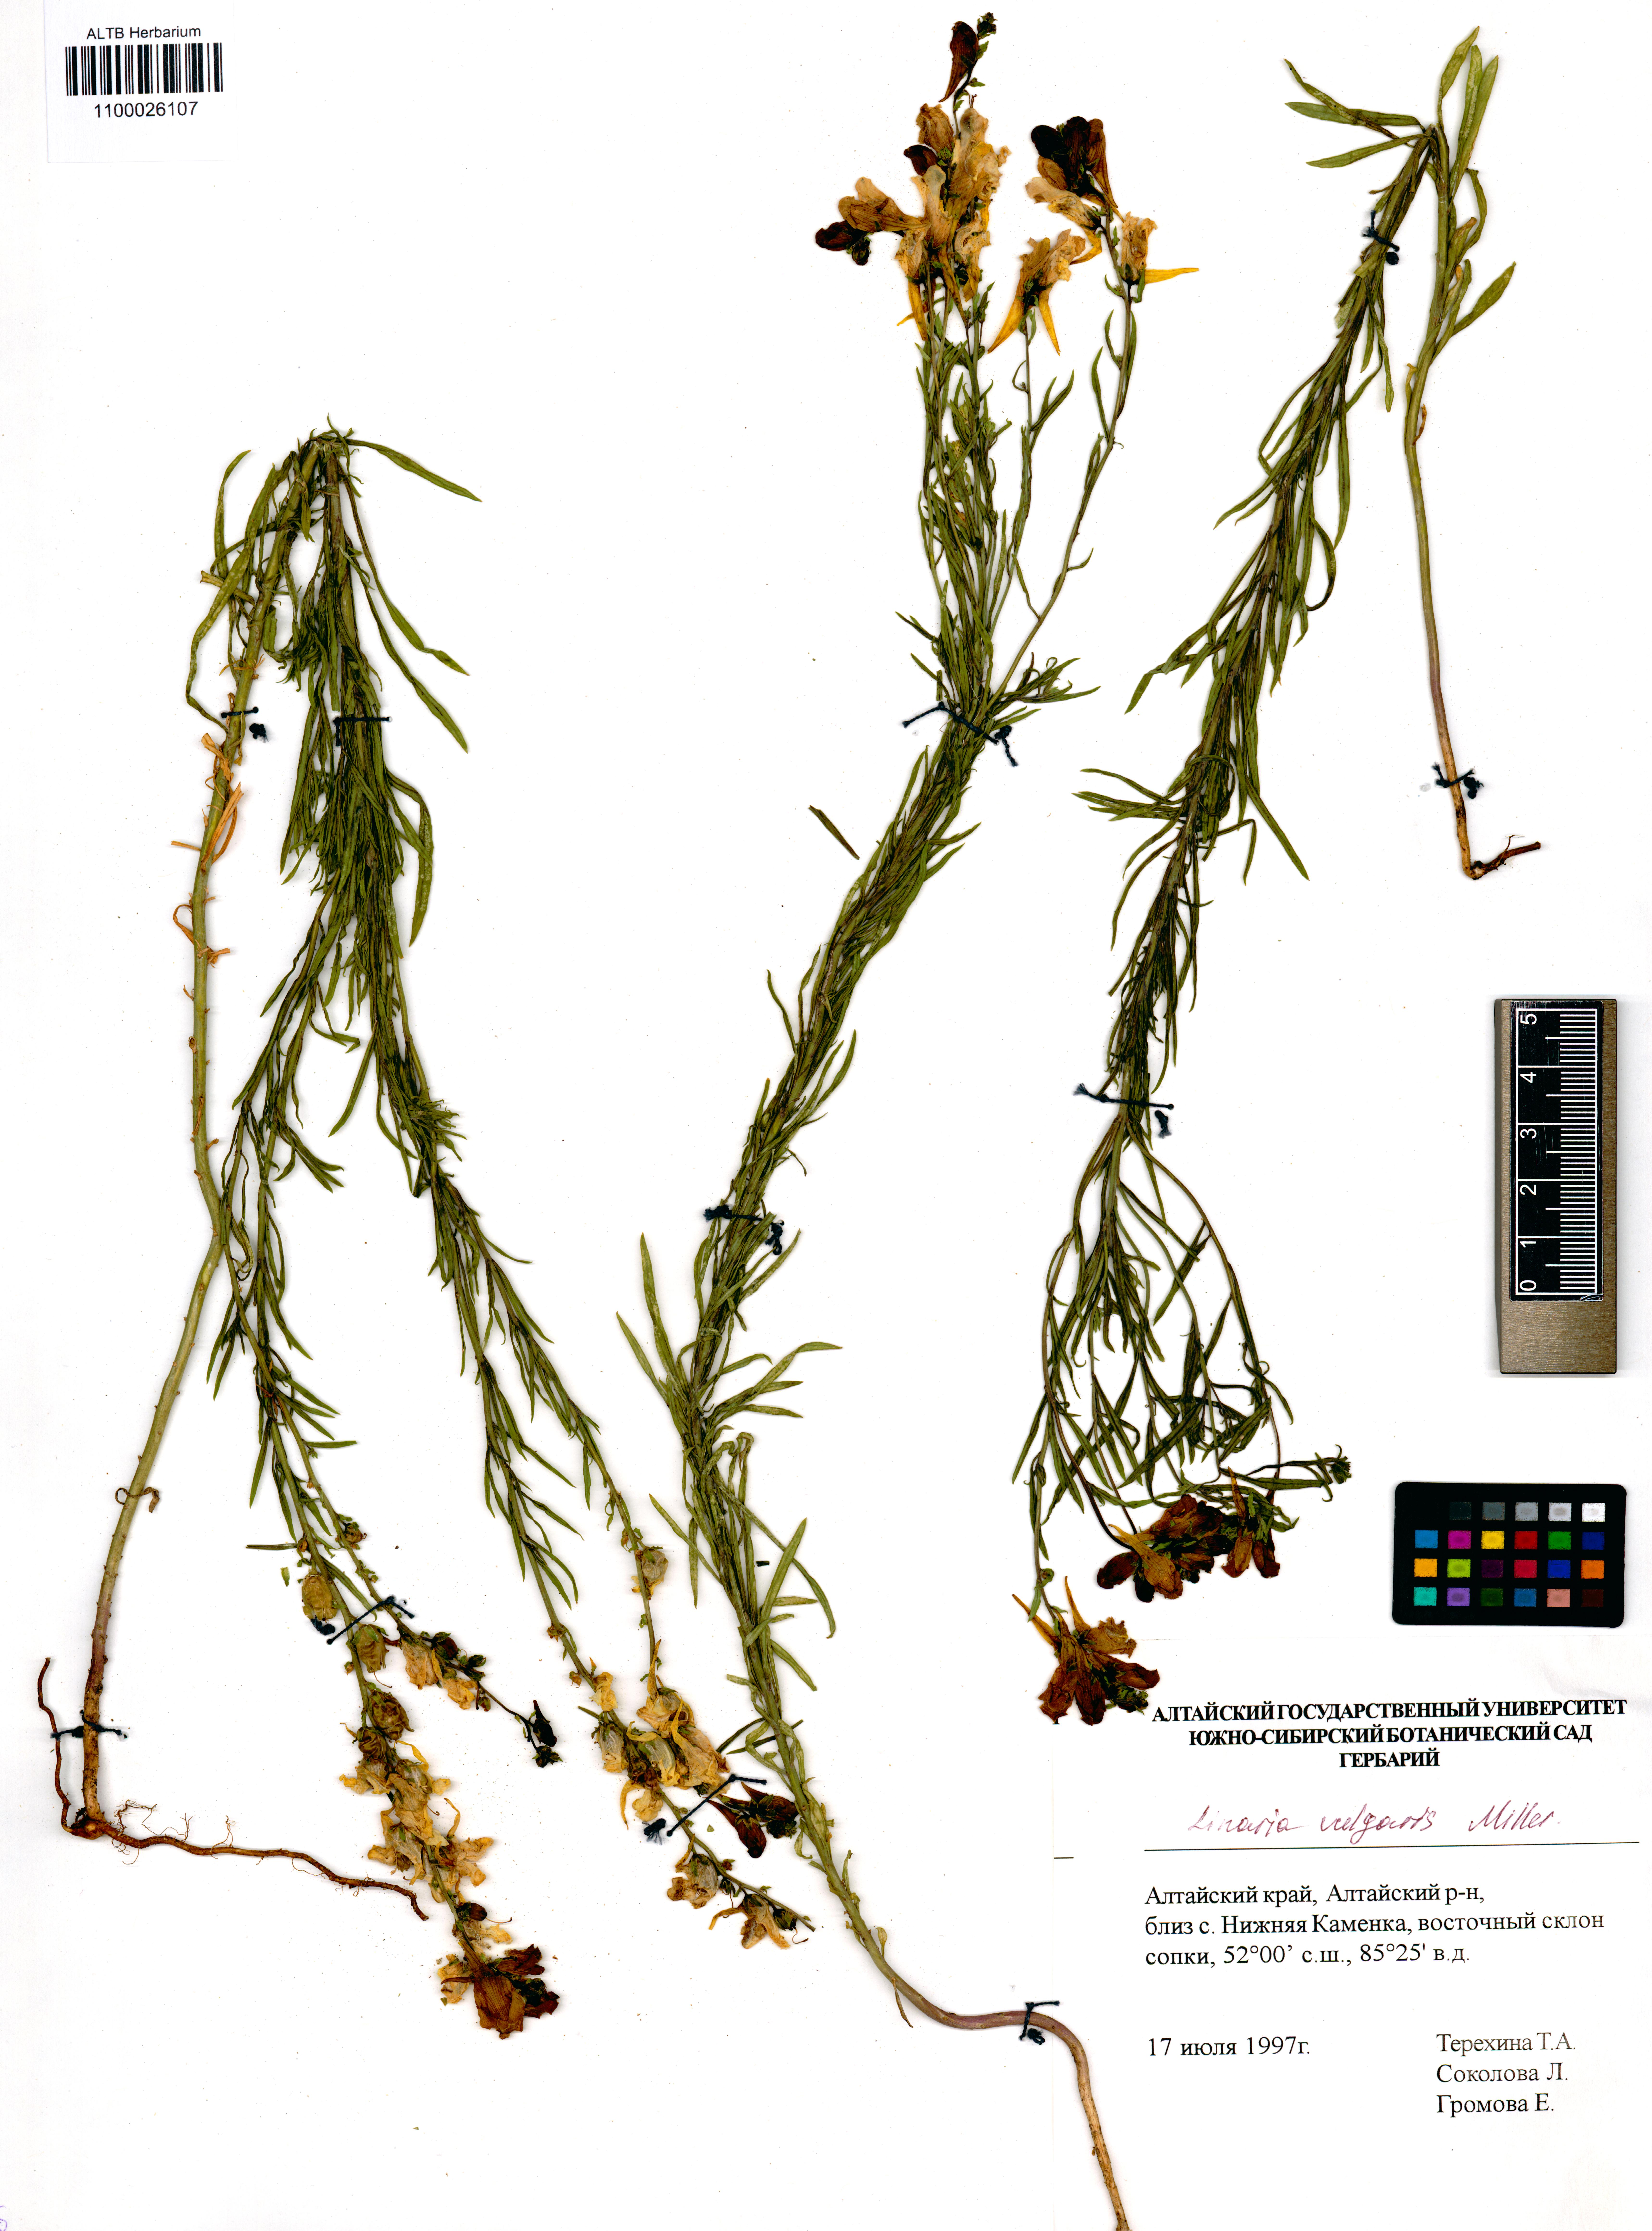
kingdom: Plantae
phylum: Tracheophyta
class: Magnoliopsida
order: Lamiales
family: Plantaginaceae
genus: Linaria
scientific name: Linaria vulgaris
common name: Butter and eggs
